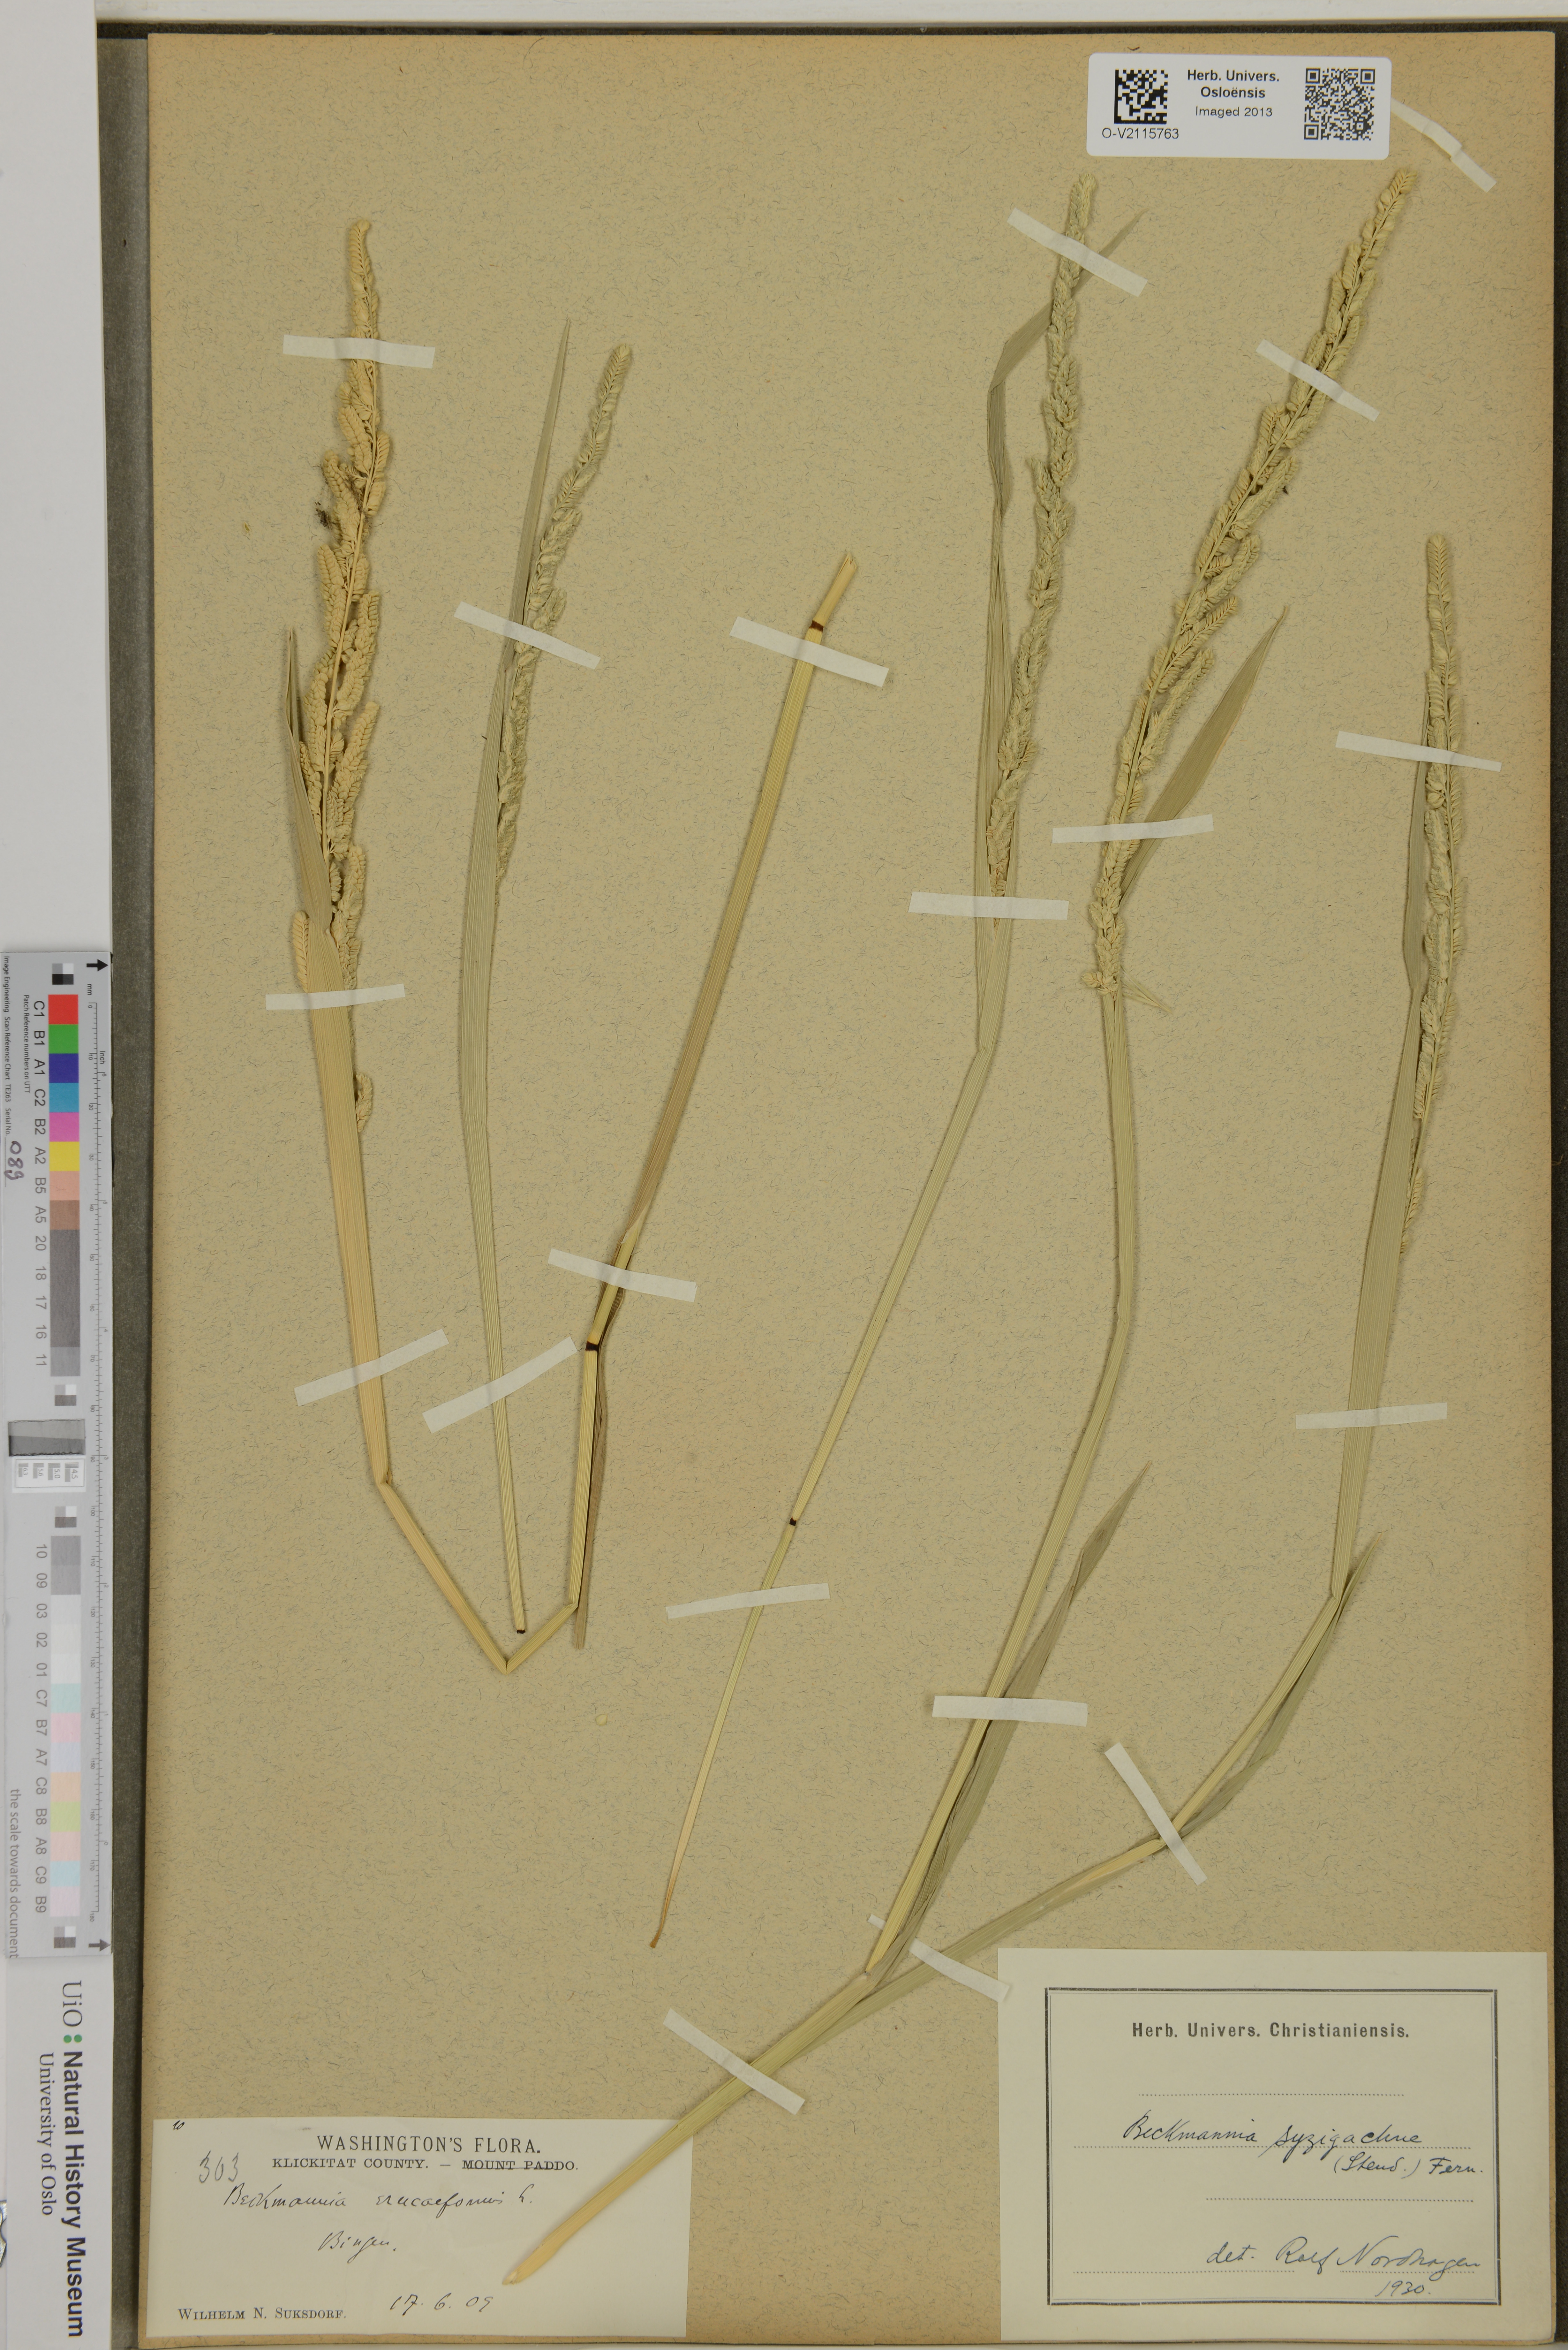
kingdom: Plantae
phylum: Tracheophyta
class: Liliopsida
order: Poales
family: Poaceae
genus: Beckmannia
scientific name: Beckmannia syzigachne
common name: American slough-grass
